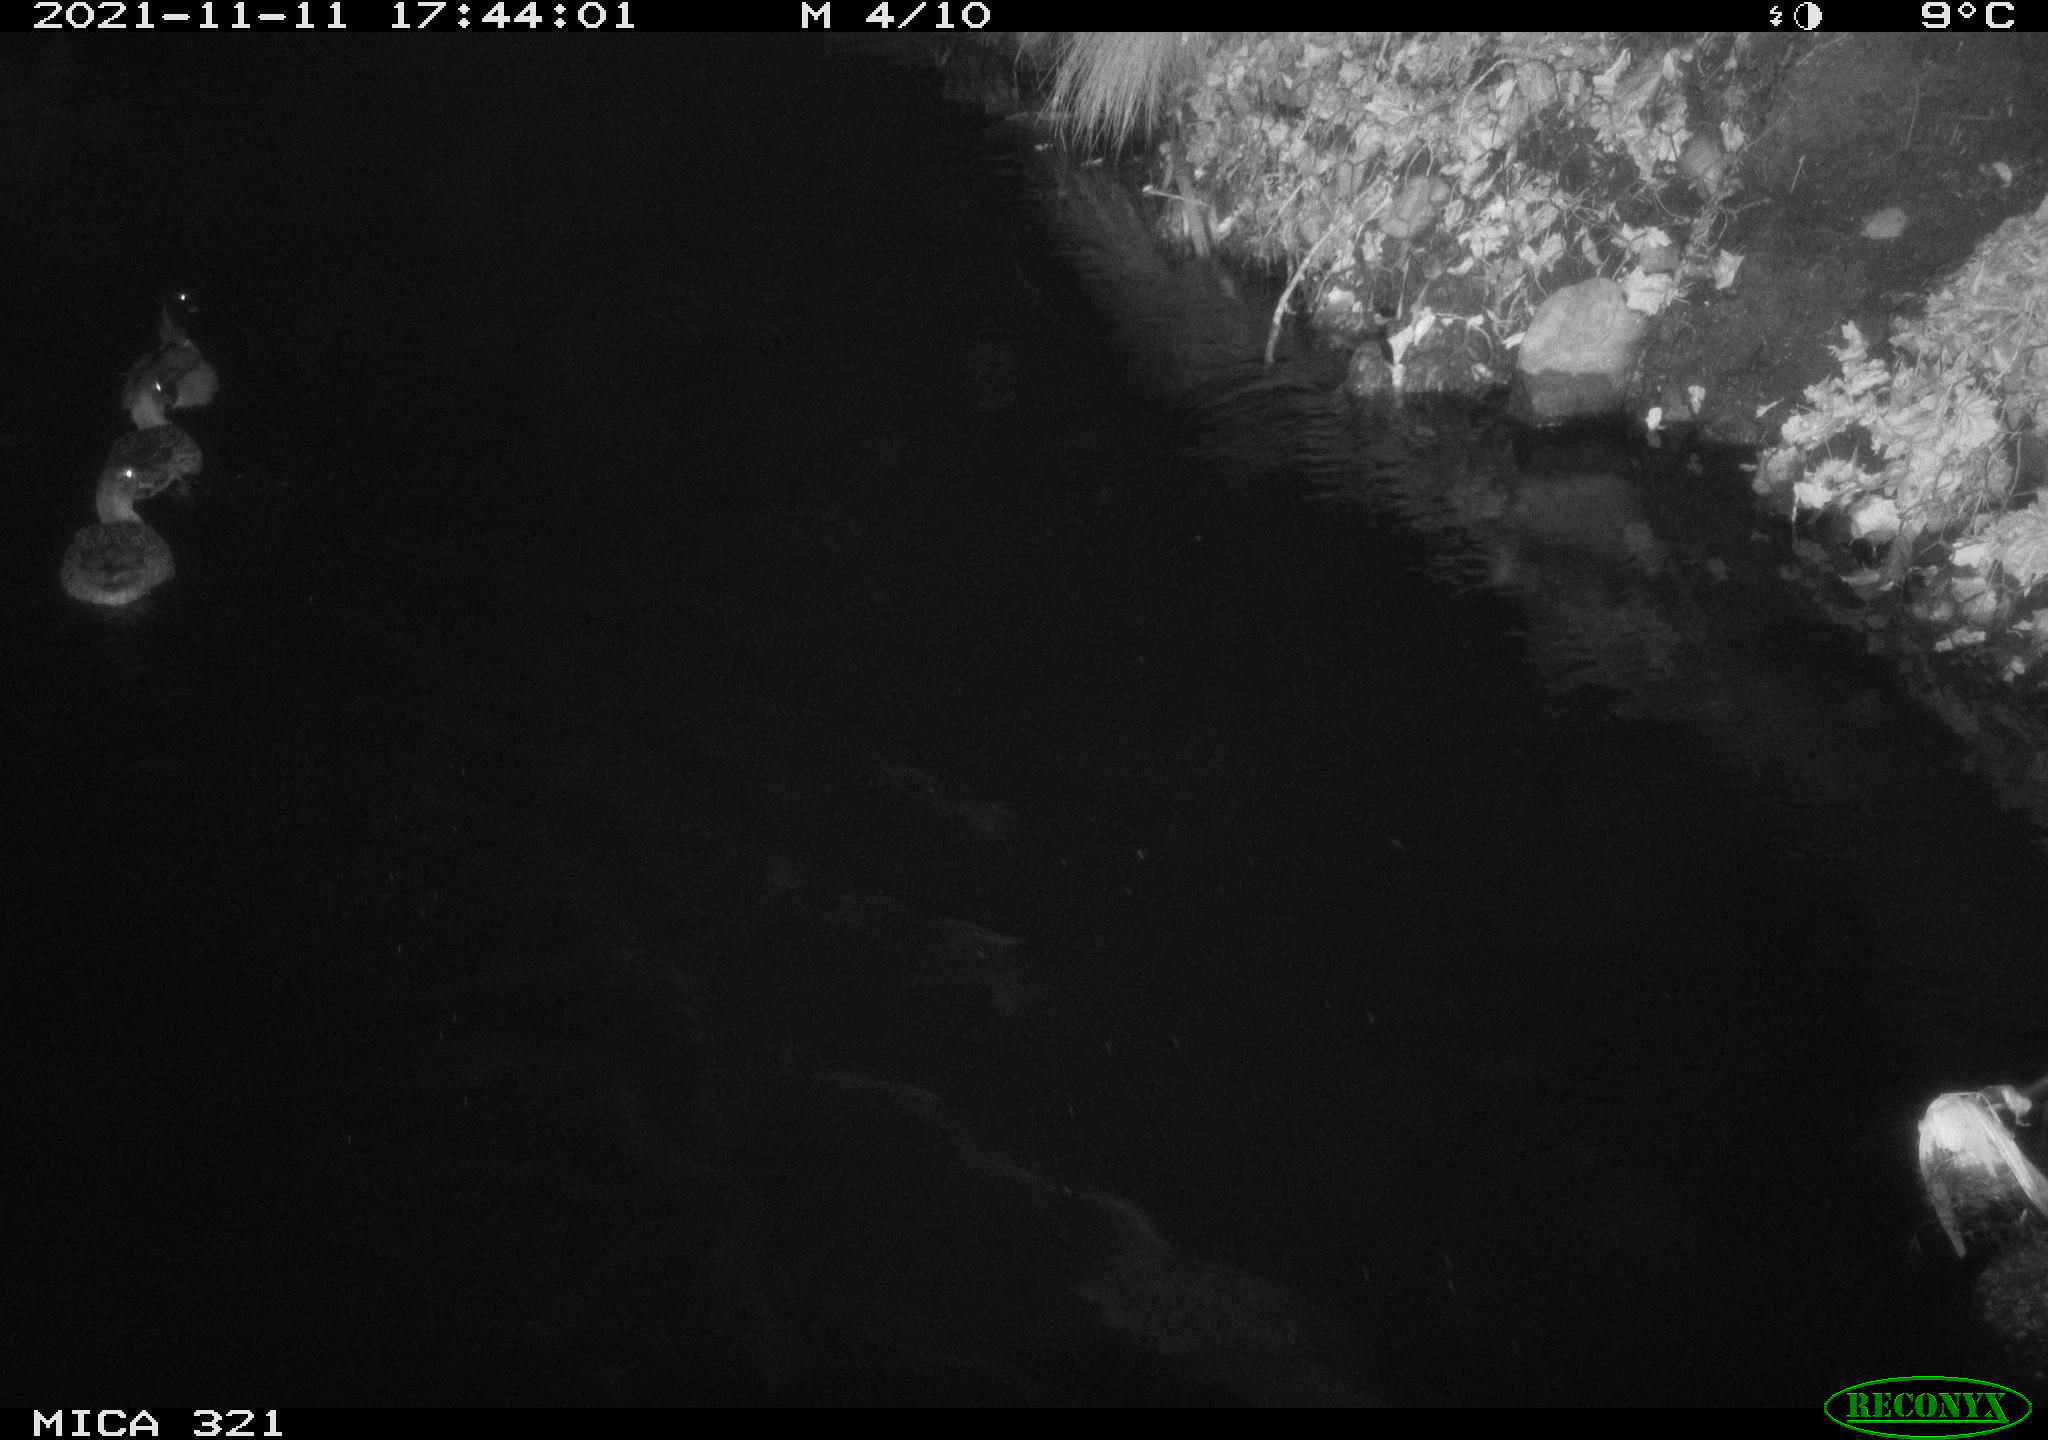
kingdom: Animalia
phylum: Chordata
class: Aves
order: Anseriformes
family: Anatidae
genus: Anas
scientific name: Anas platyrhynchos
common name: Mallard
